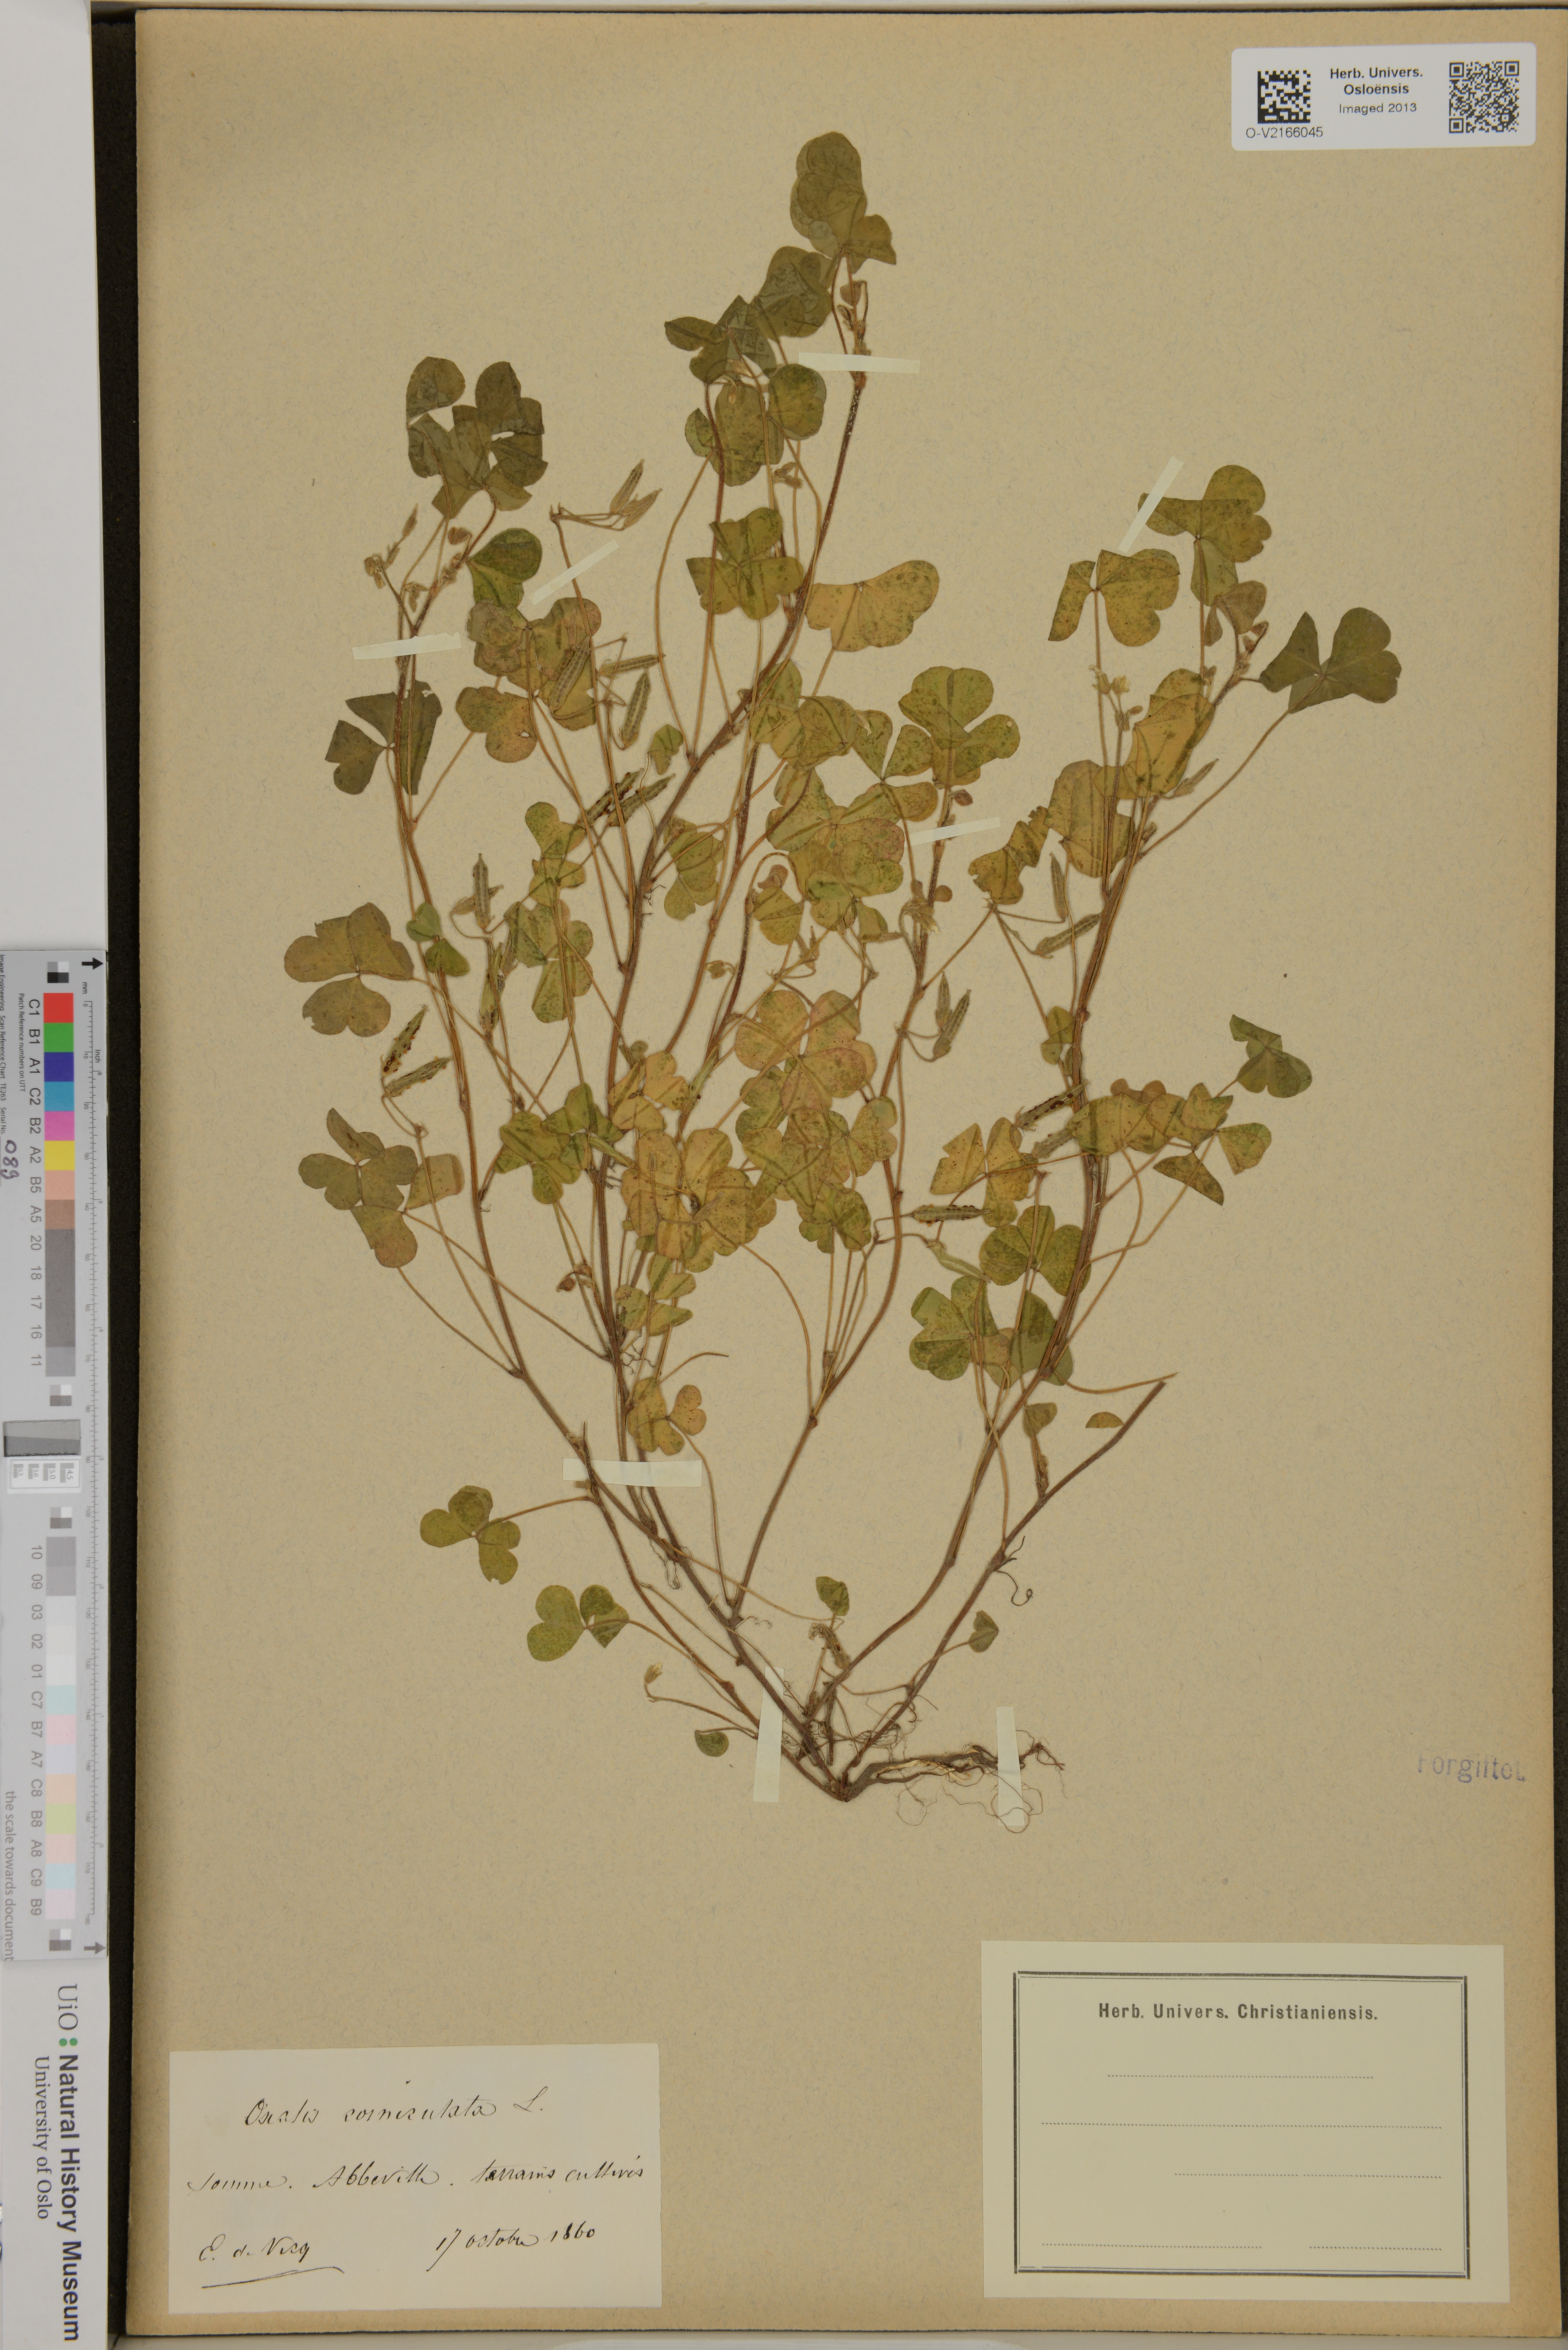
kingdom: Plantae
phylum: Tracheophyta
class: Magnoliopsida
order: Oxalidales
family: Oxalidaceae
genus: Oxalis
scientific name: Oxalis corniculata
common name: Procumbent yellow-sorrel
